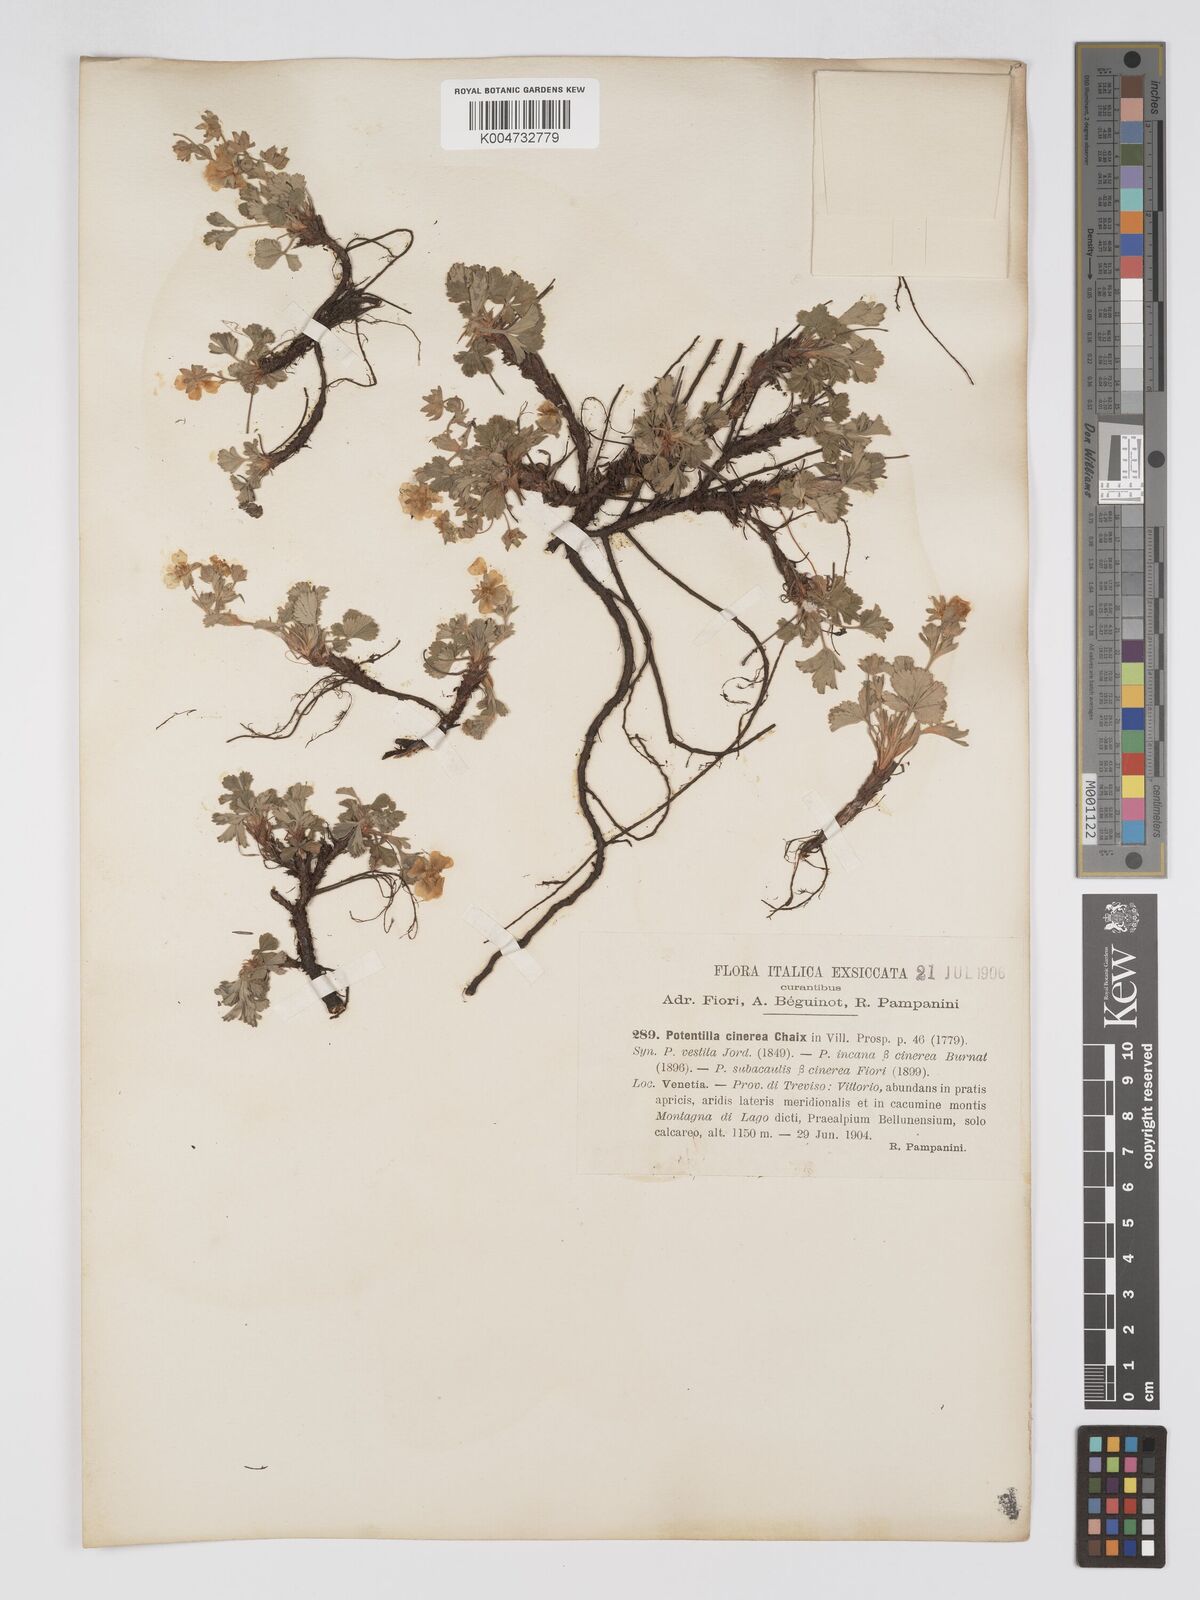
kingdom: Plantae
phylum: Tracheophyta
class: Magnoliopsida
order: Rosales
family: Rosaceae
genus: Potentilla
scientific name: Potentilla
